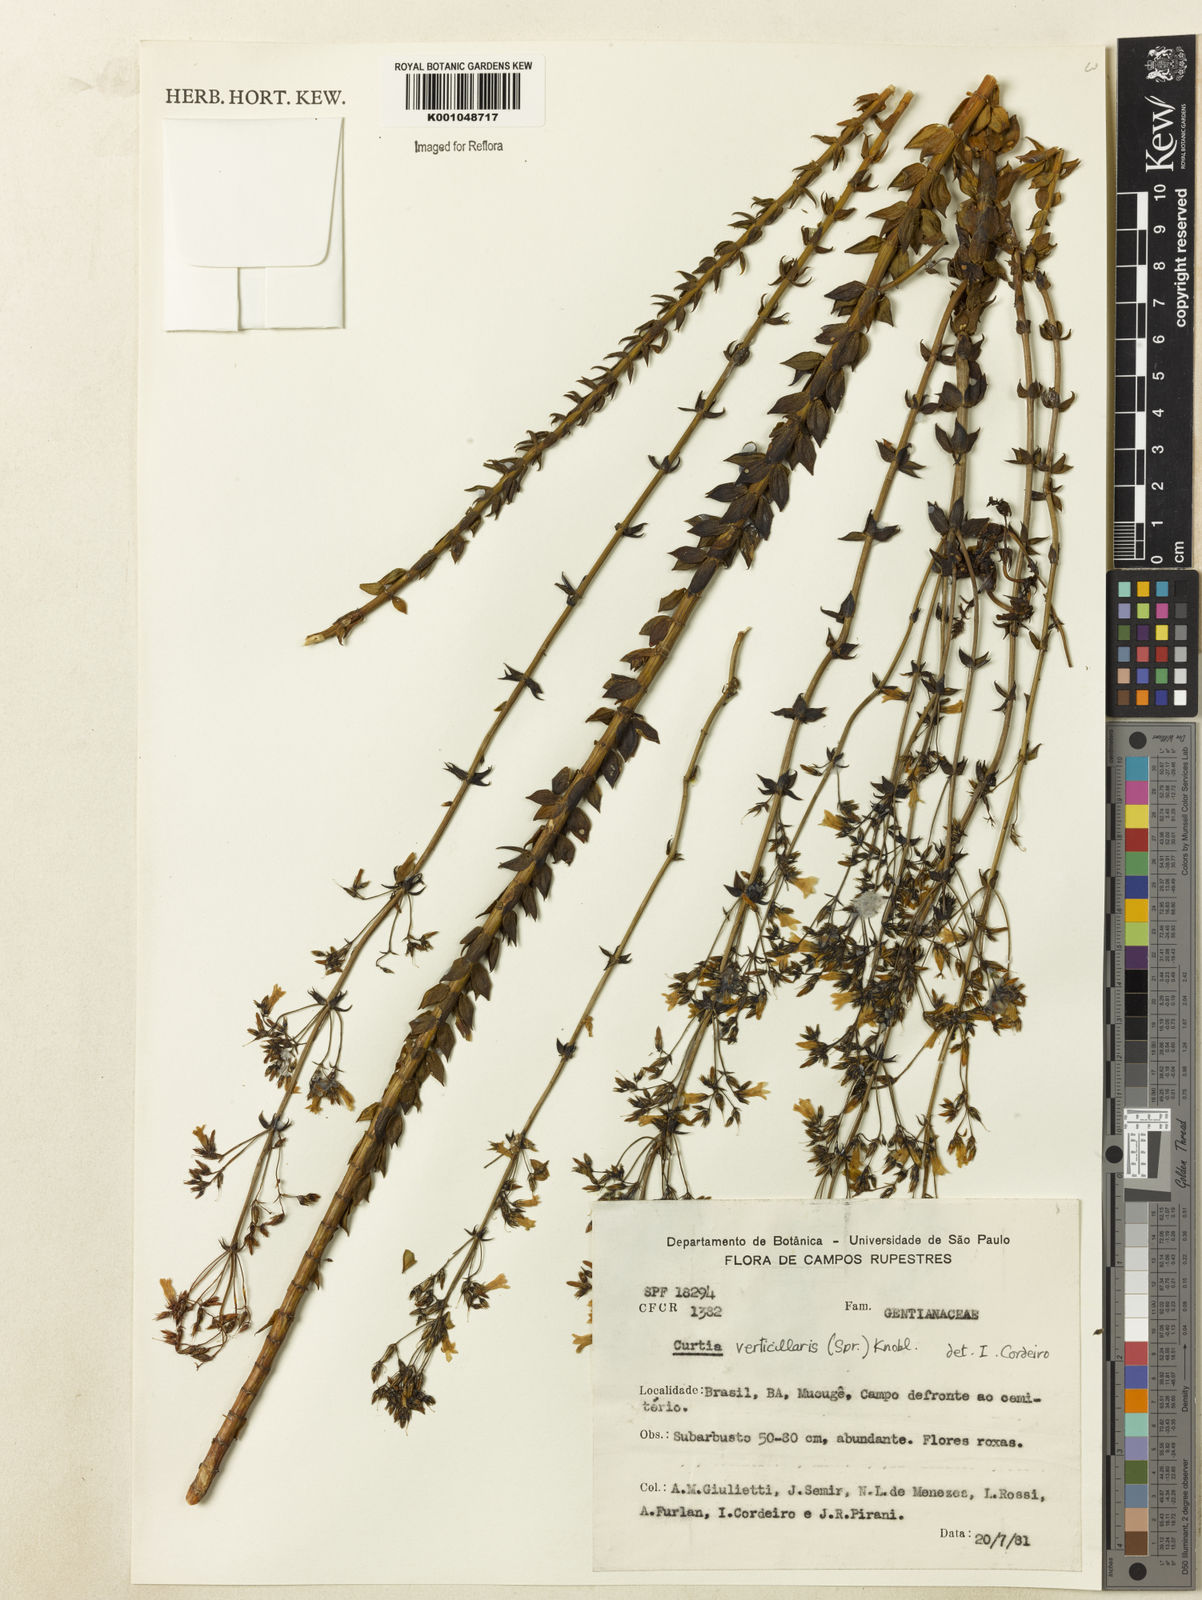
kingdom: Plantae
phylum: Tracheophyta
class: Magnoliopsida
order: Gentianales
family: Gentianaceae
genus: Curtia
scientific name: Curtia verticillaris
